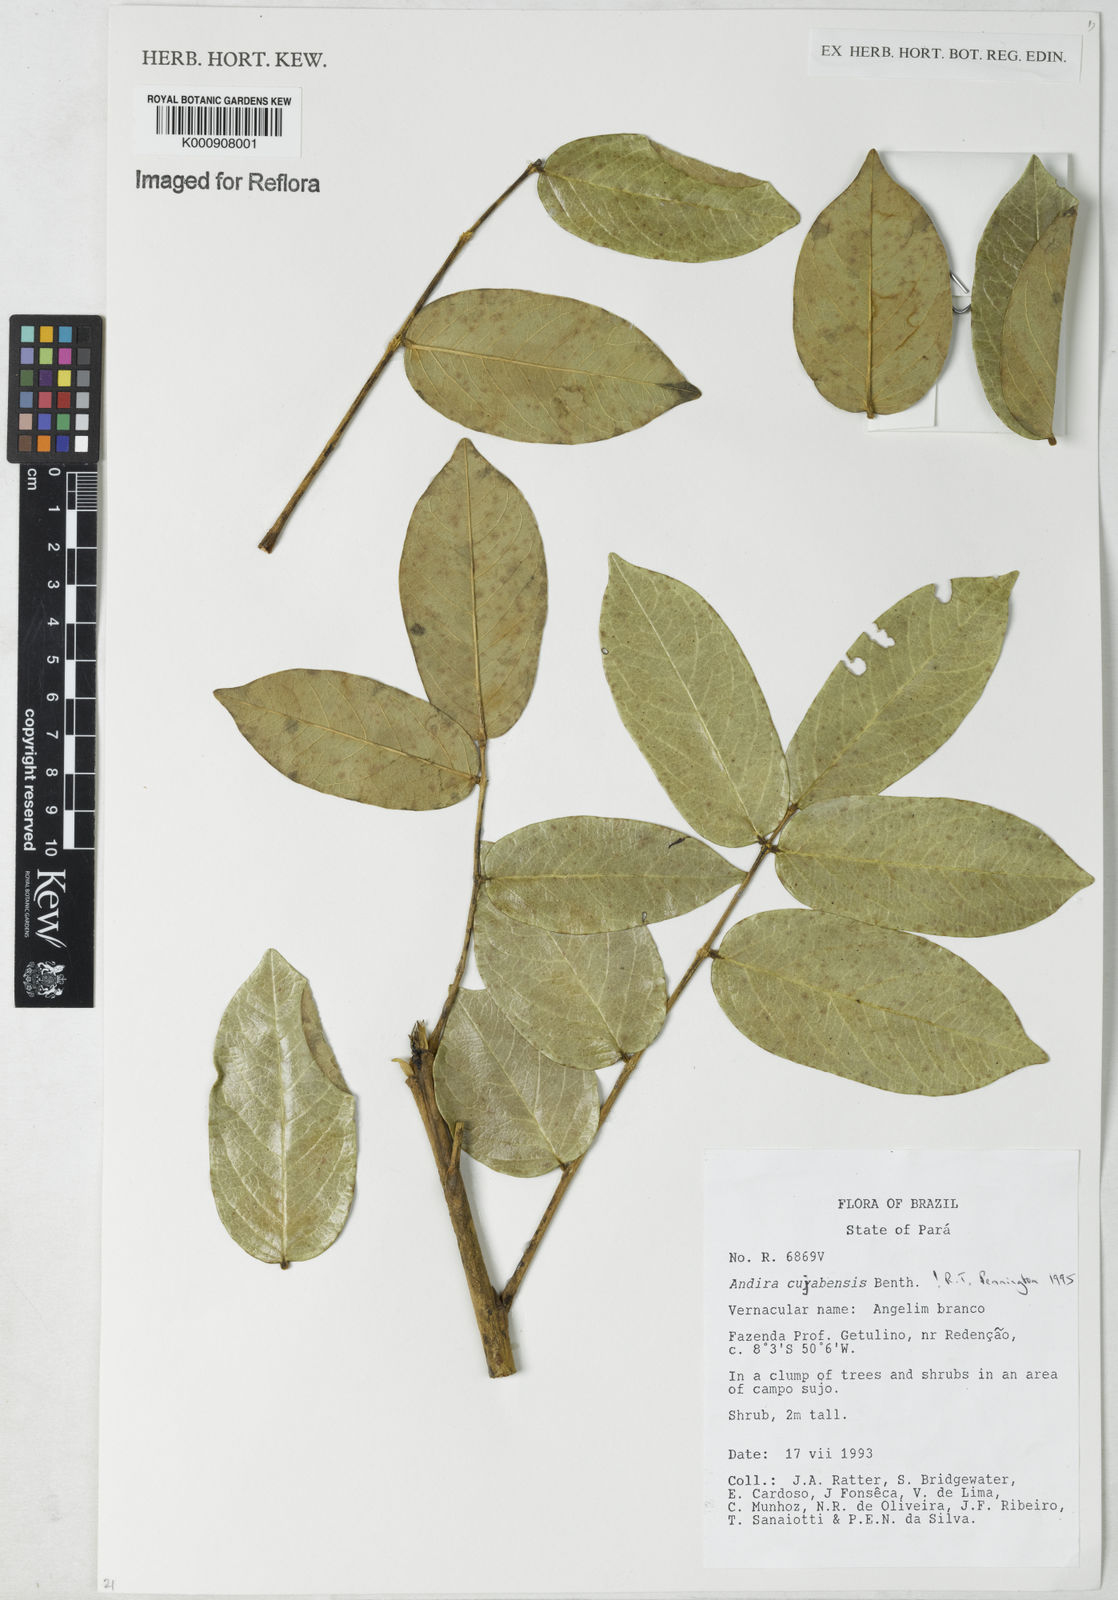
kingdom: Plantae
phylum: Tracheophyta
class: Magnoliopsida
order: Fabales
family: Fabaceae
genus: Andira
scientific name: Andira cujabensis
